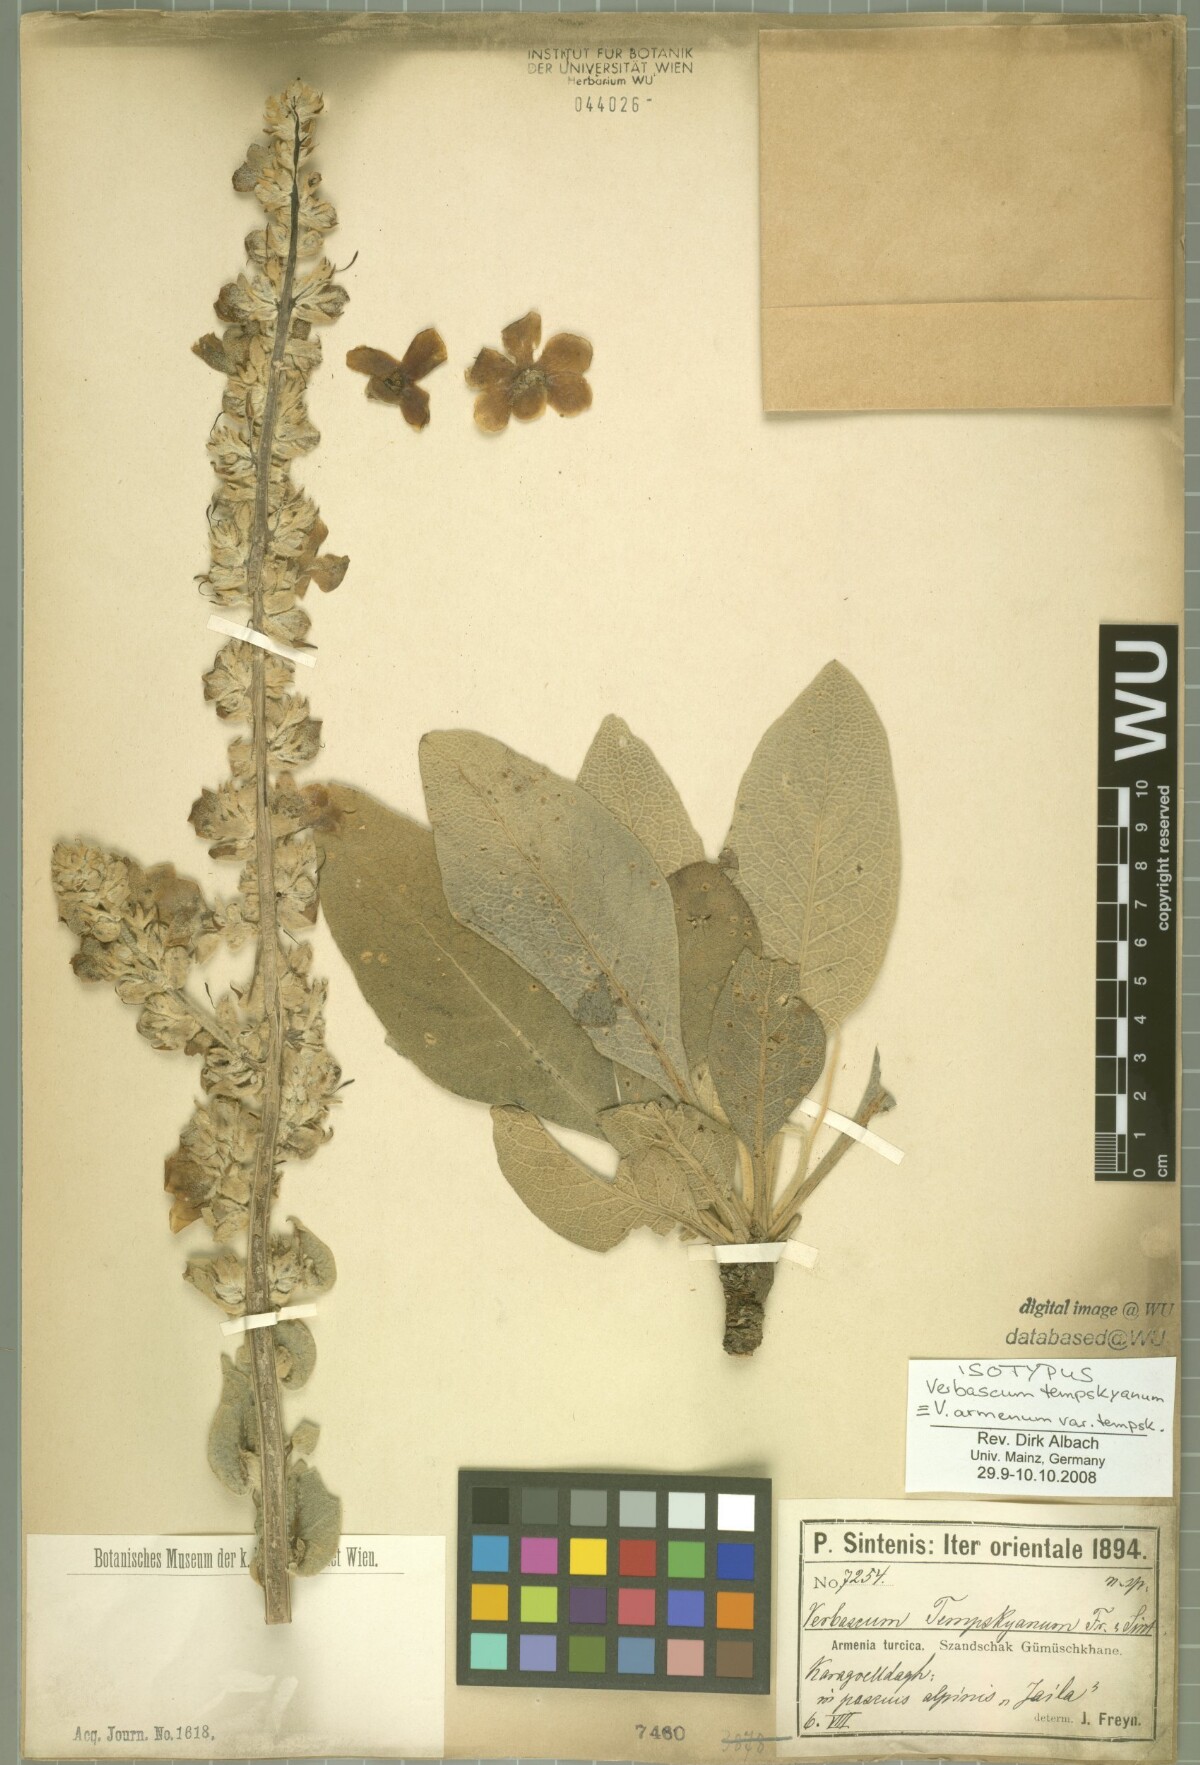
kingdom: Plantae
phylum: Tracheophyta
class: Magnoliopsida
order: Lamiales
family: Scrophulariaceae
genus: Verbascum
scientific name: Verbascum armenum
